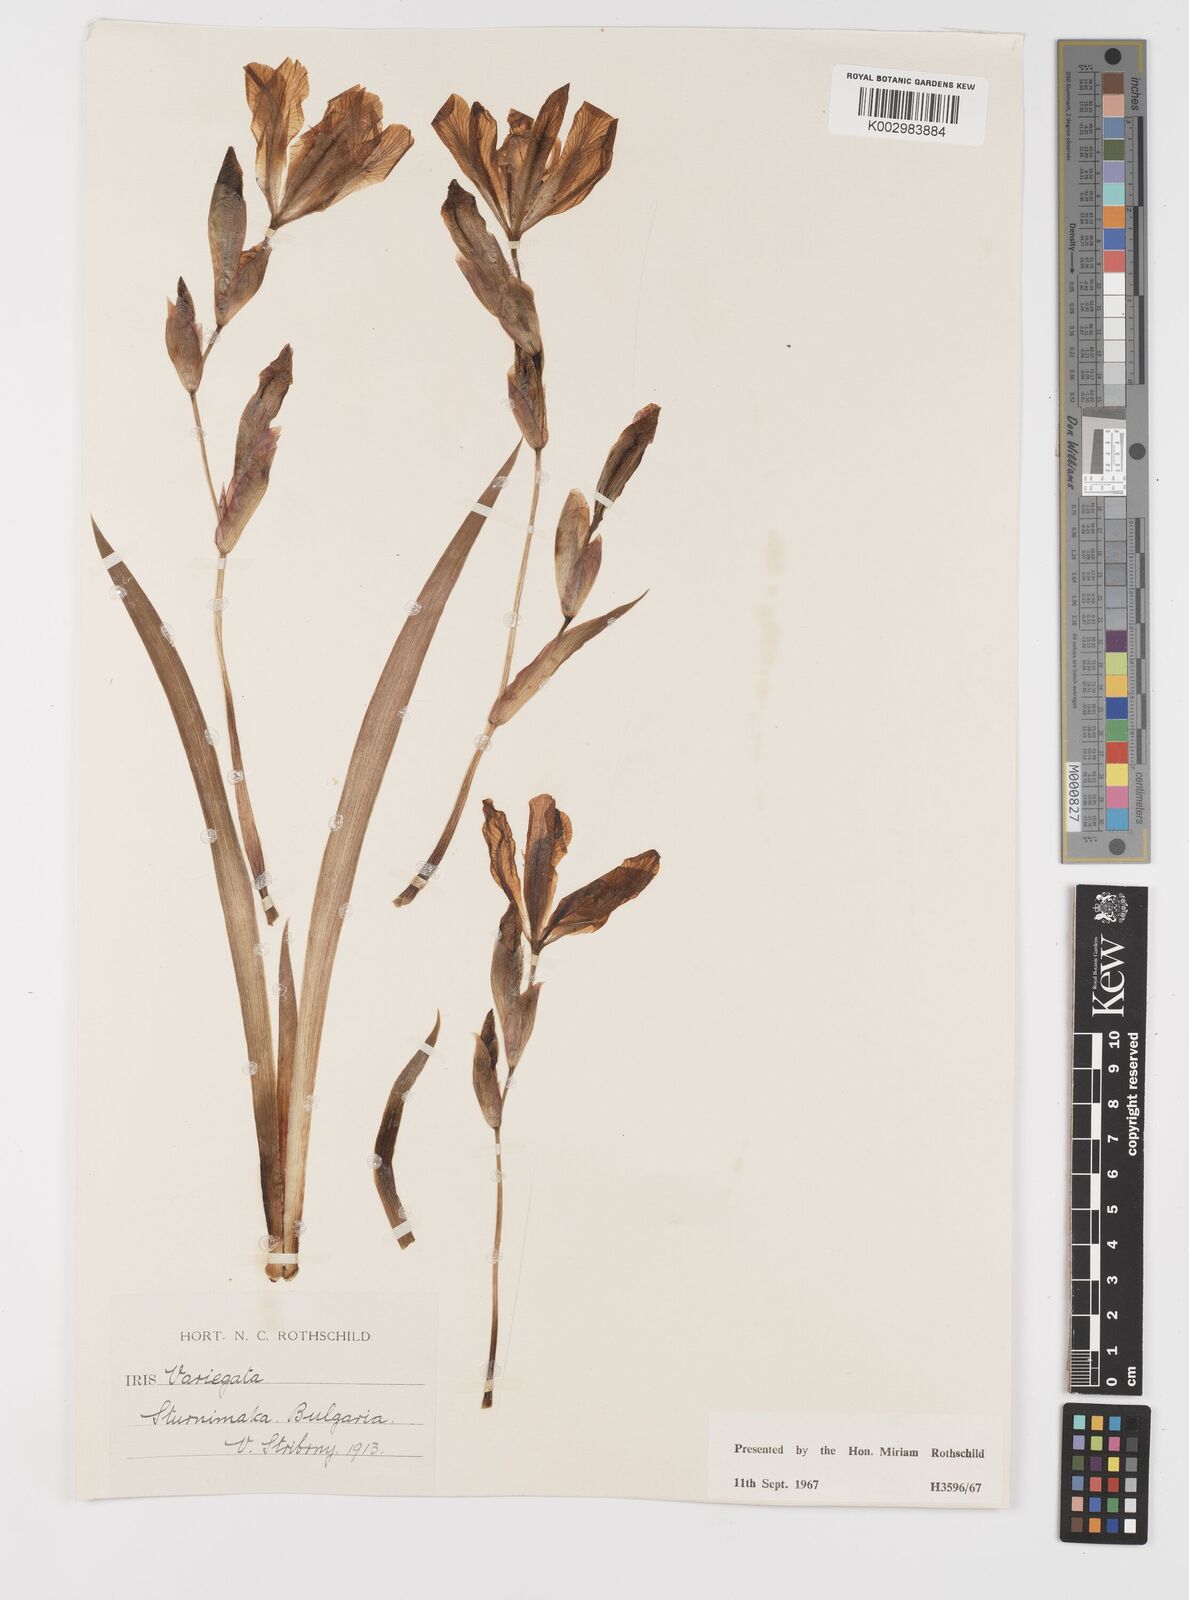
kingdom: Plantae
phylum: Tracheophyta
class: Liliopsida
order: Asparagales
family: Iridaceae
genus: Iris
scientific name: Iris variegata
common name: Hungarian iris
